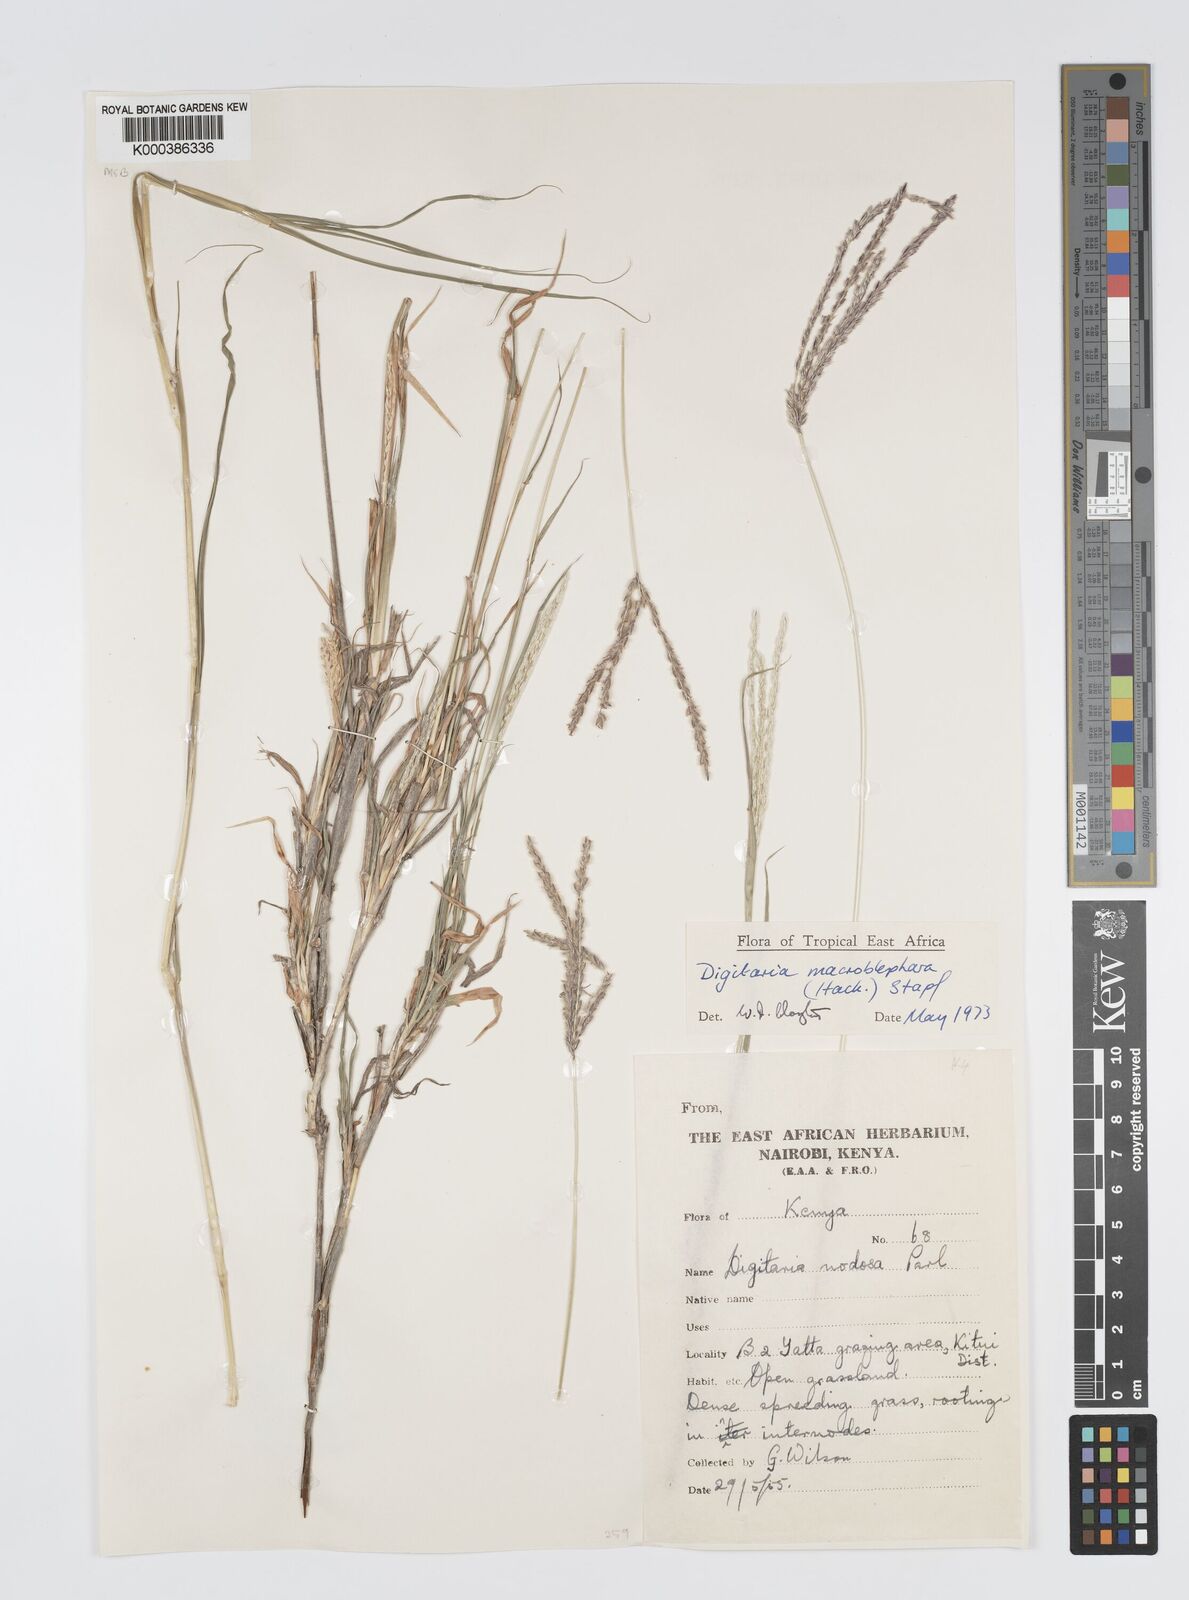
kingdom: Plantae
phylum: Tracheophyta
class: Liliopsida
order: Poales
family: Poaceae
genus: Digitaria
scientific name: Digitaria macroblephara
